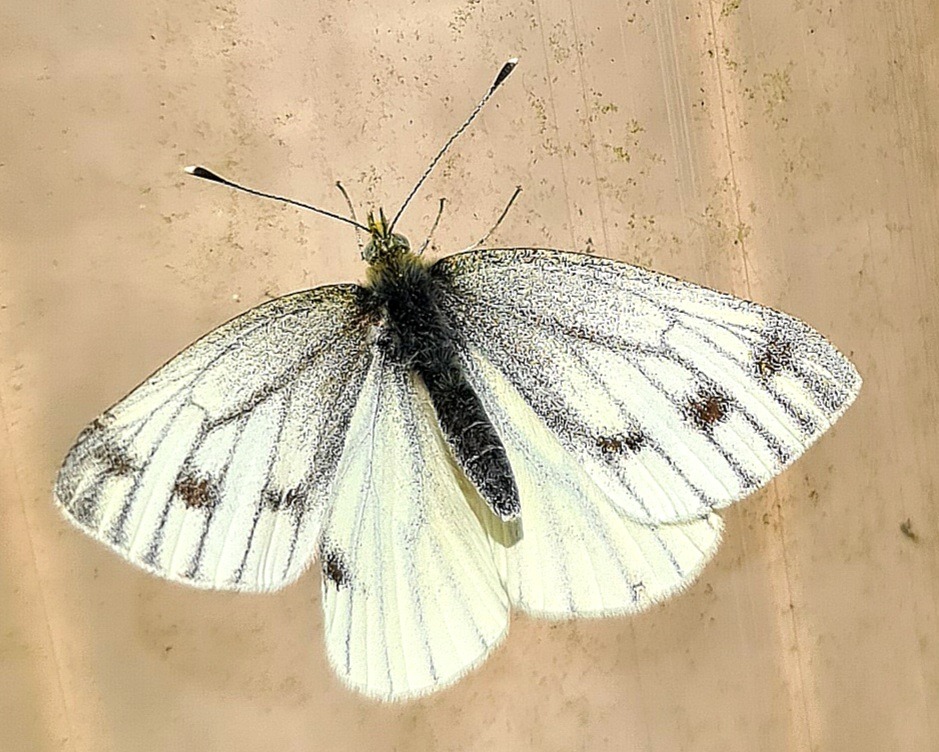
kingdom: Animalia
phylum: Arthropoda
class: Insecta
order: Lepidoptera
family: Pieridae
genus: Pieris
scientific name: Pieris napi
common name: Grønåret kålsommerfugl
